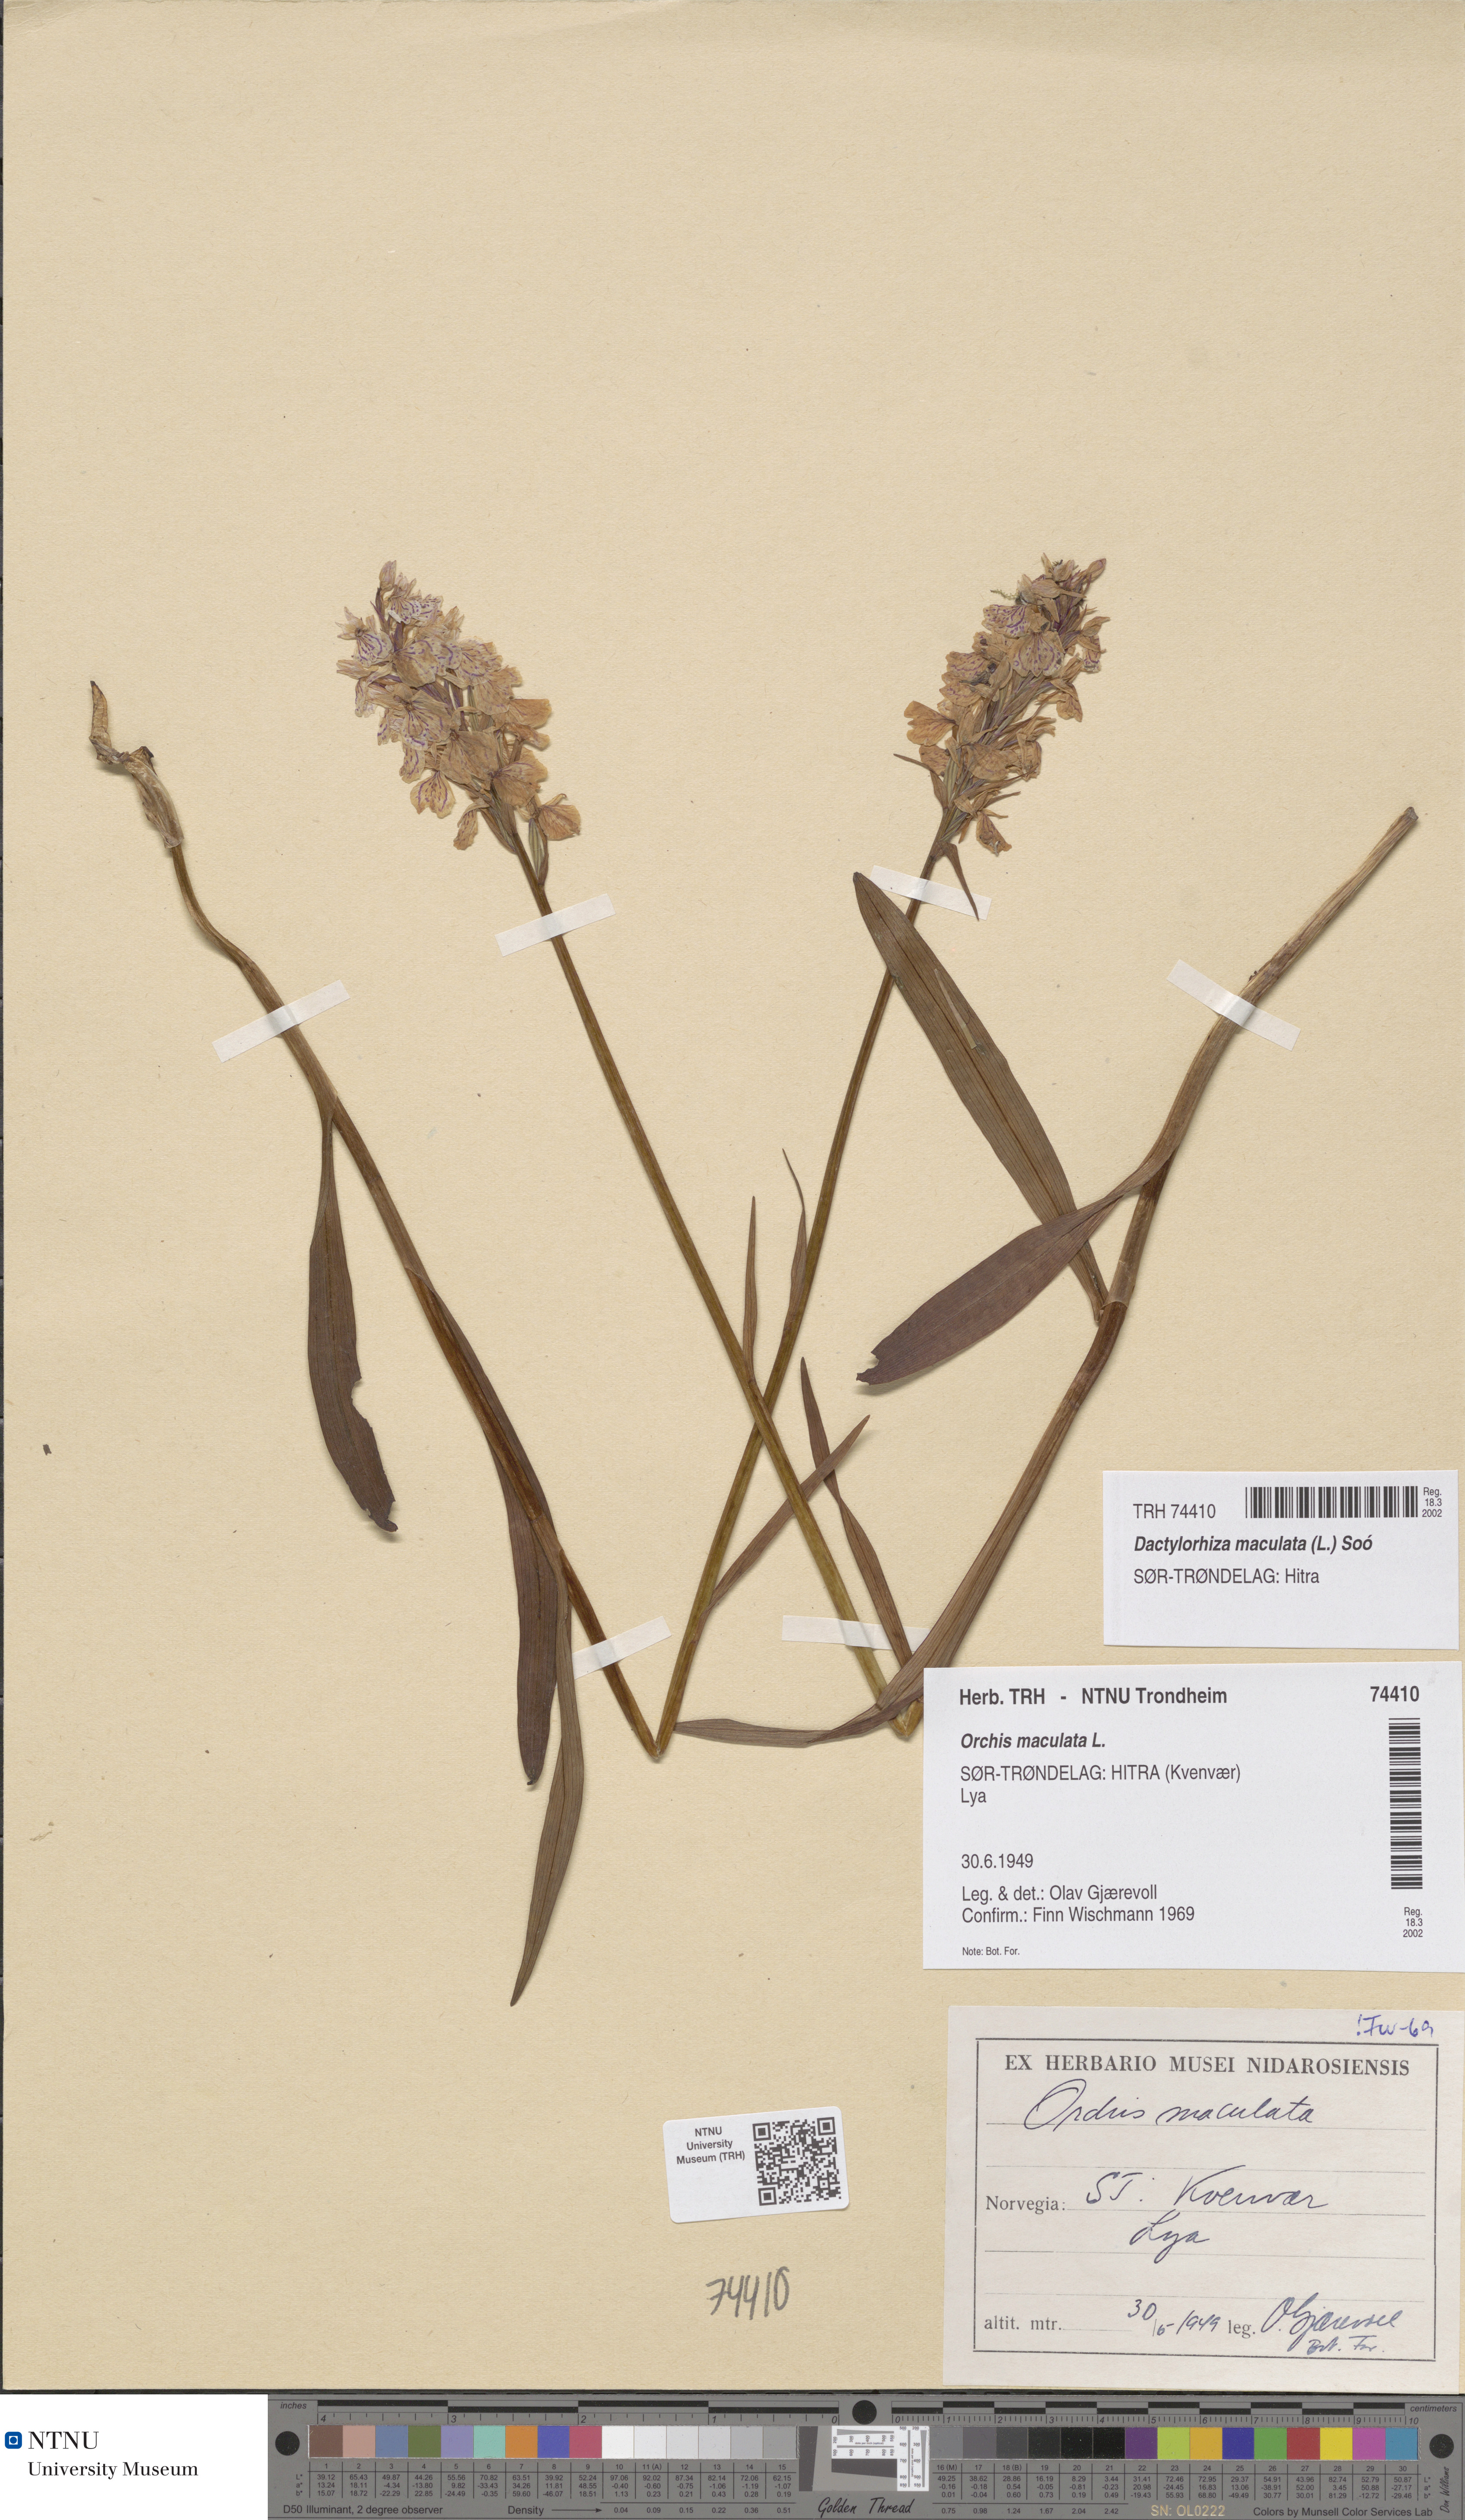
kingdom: Plantae
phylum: Tracheophyta
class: Liliopsida
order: Asparagales
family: Orchidaceae
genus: Dactylorhiza
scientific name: Dactylorhiza maculata
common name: Heath spotted-orchid
